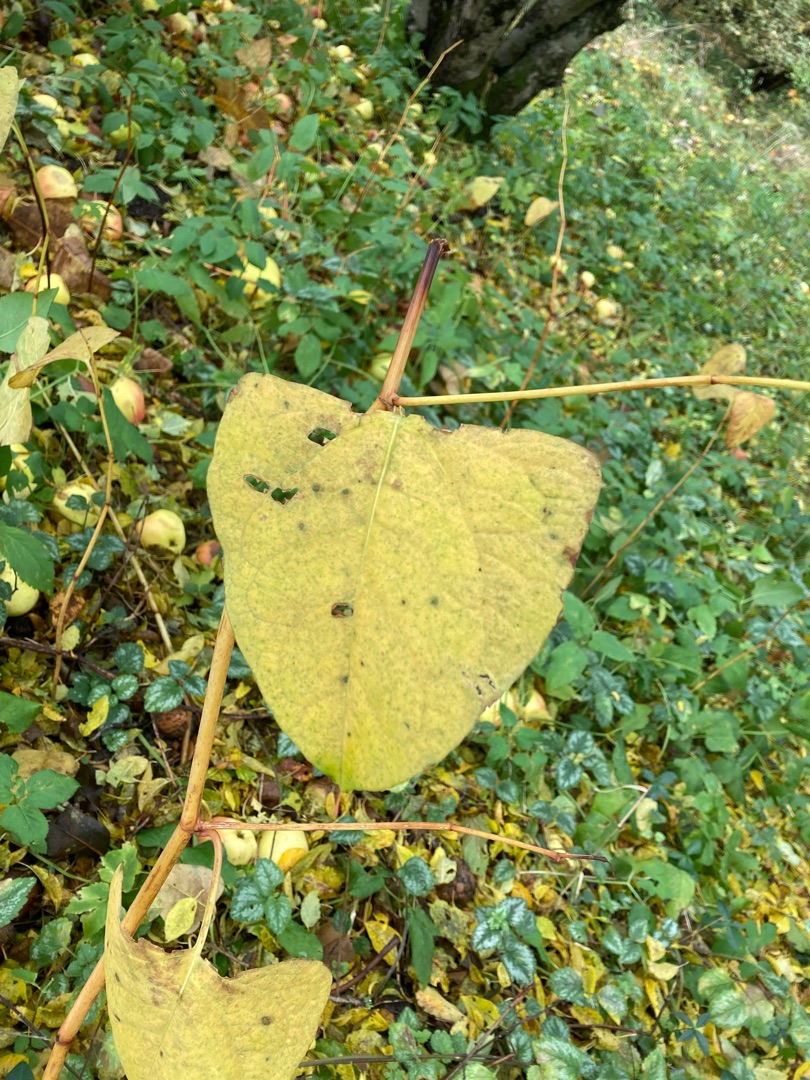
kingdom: Plantae
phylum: Tracheophyta
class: Magnoliopsida
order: Caryophyllales
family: Polygonaceae
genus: Reynoutria
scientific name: Reynoutria japonica
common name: Japan-pileurt
